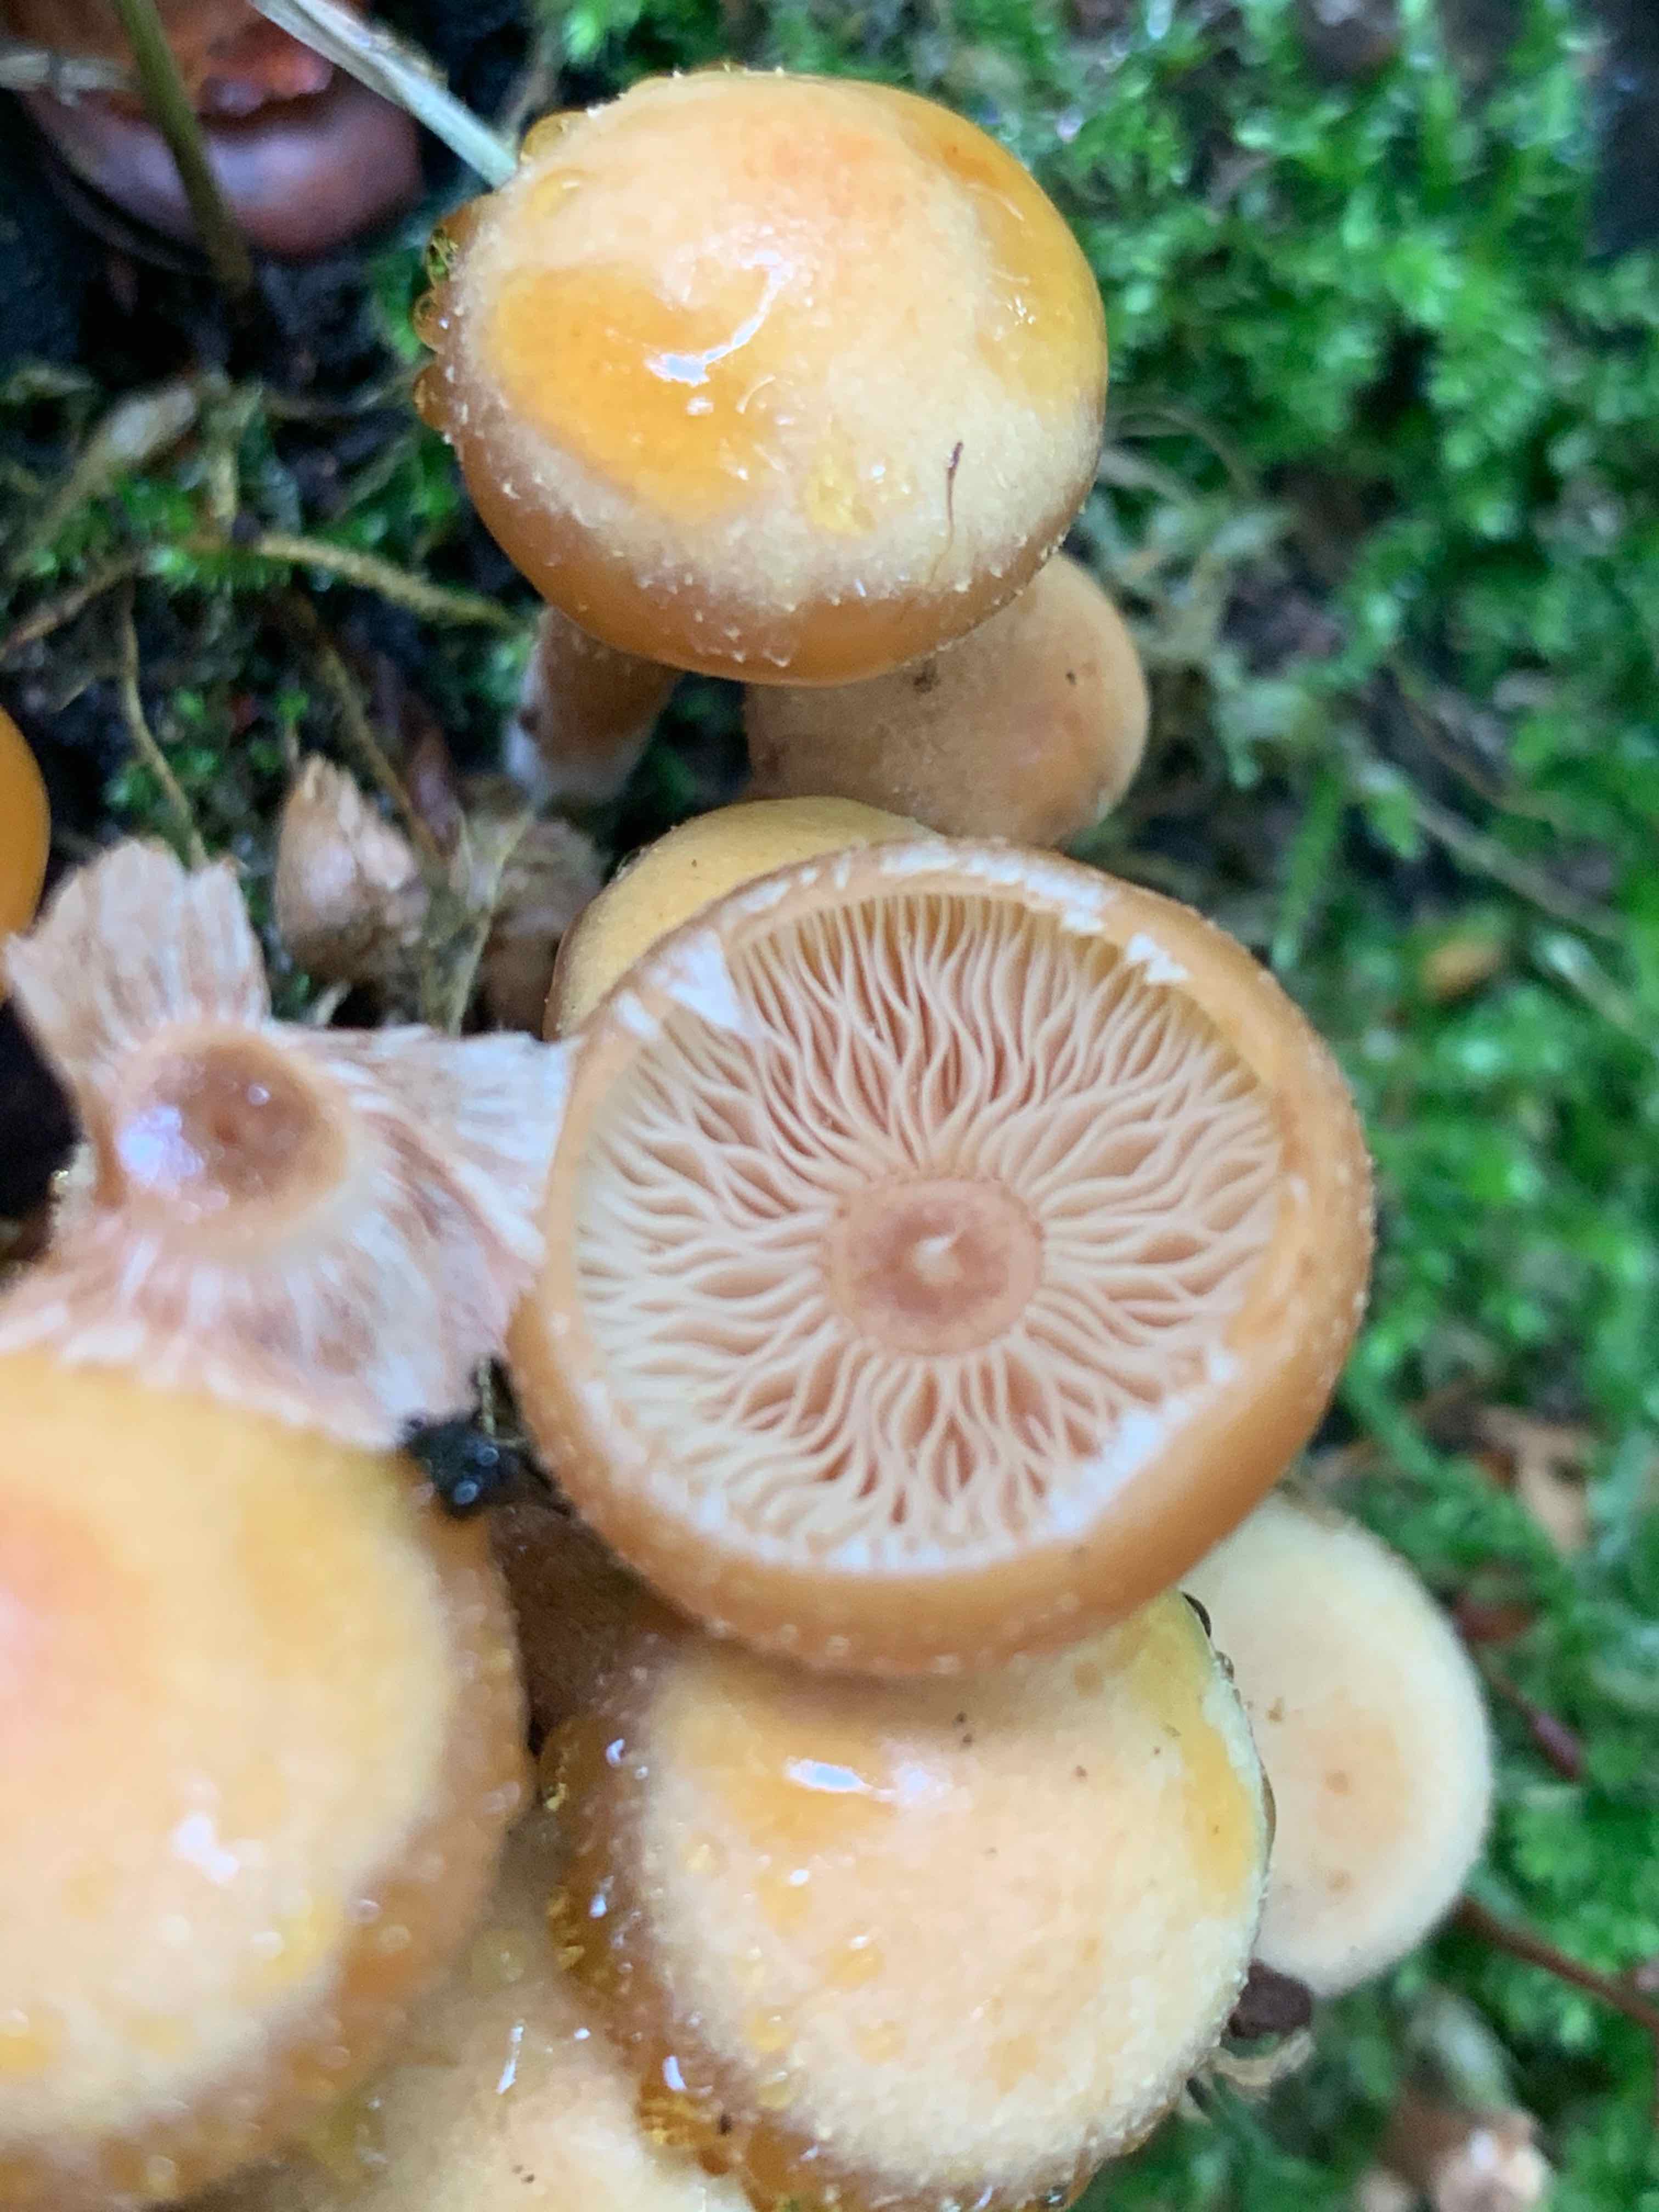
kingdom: Fungi
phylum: Basidiomycota
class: Agaricomycetes
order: Agaricales
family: Strophariaceae
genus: Kuehneromyces
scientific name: Kuehneromyces mutabilis
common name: foranderlig skælhat
